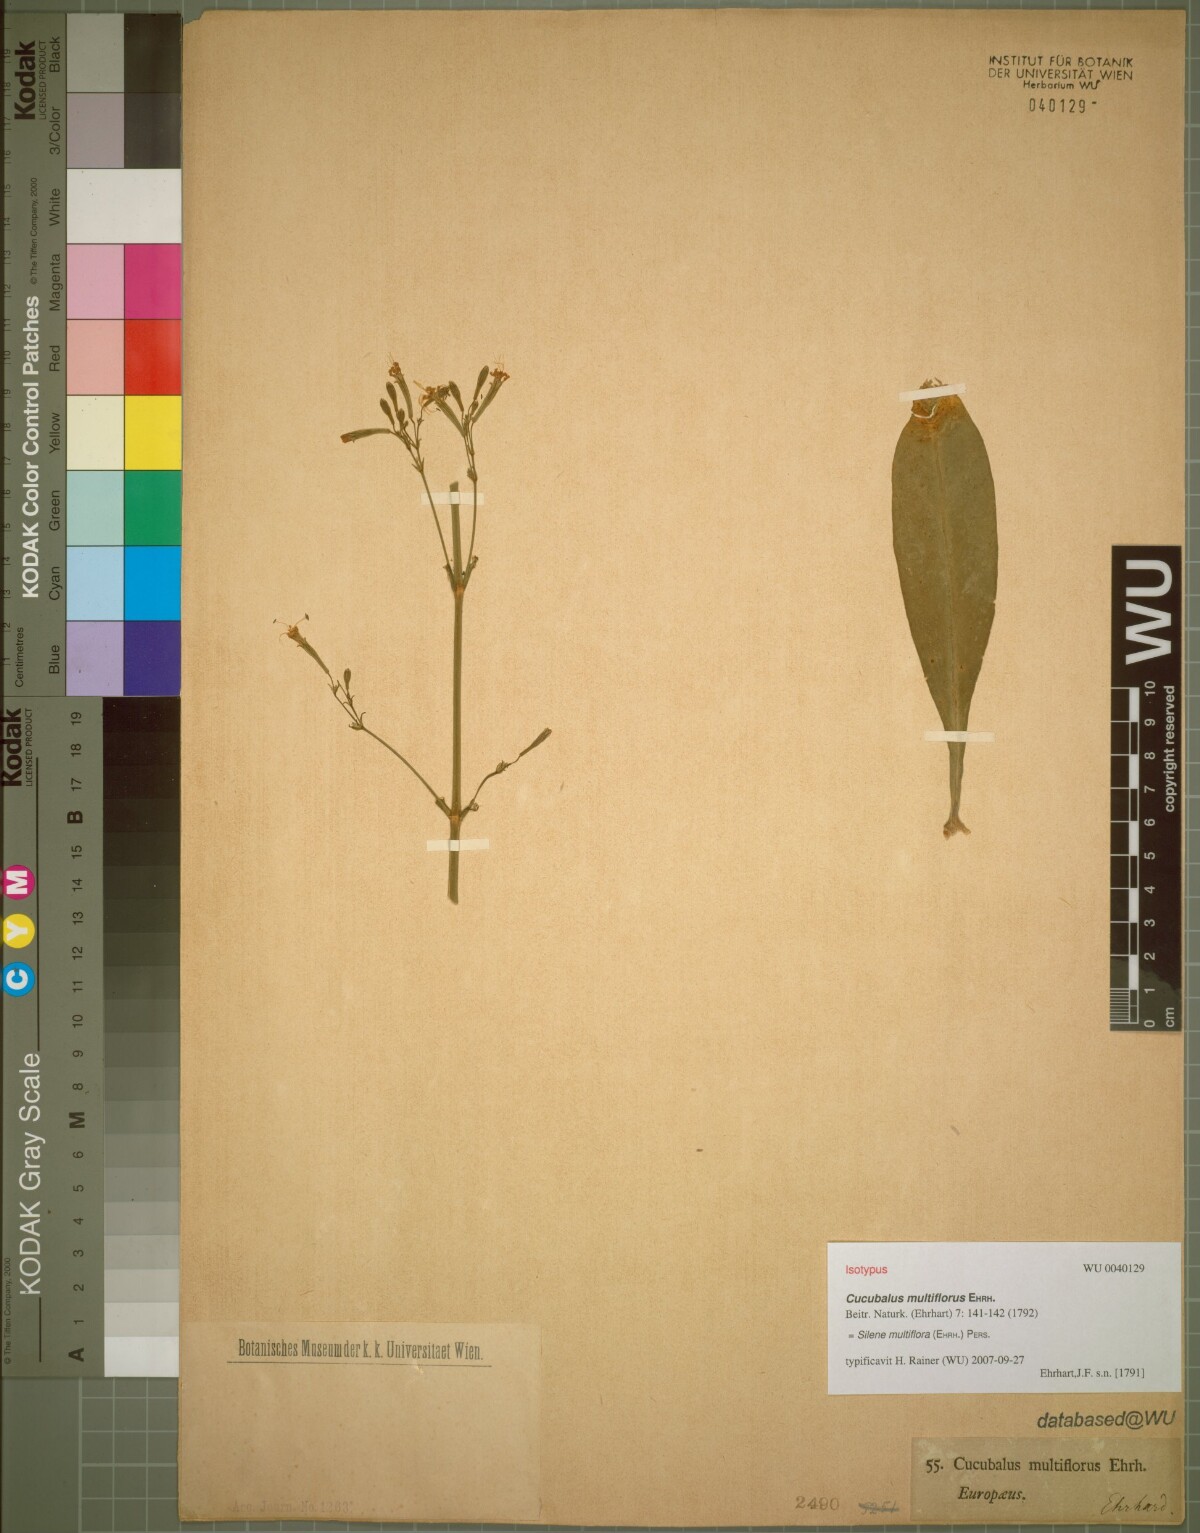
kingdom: Plantae
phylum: Tracheophyta
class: Magnoliopsida
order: Caryophyllales
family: Caryophyllaceae
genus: Silene
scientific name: Silene multiflora
